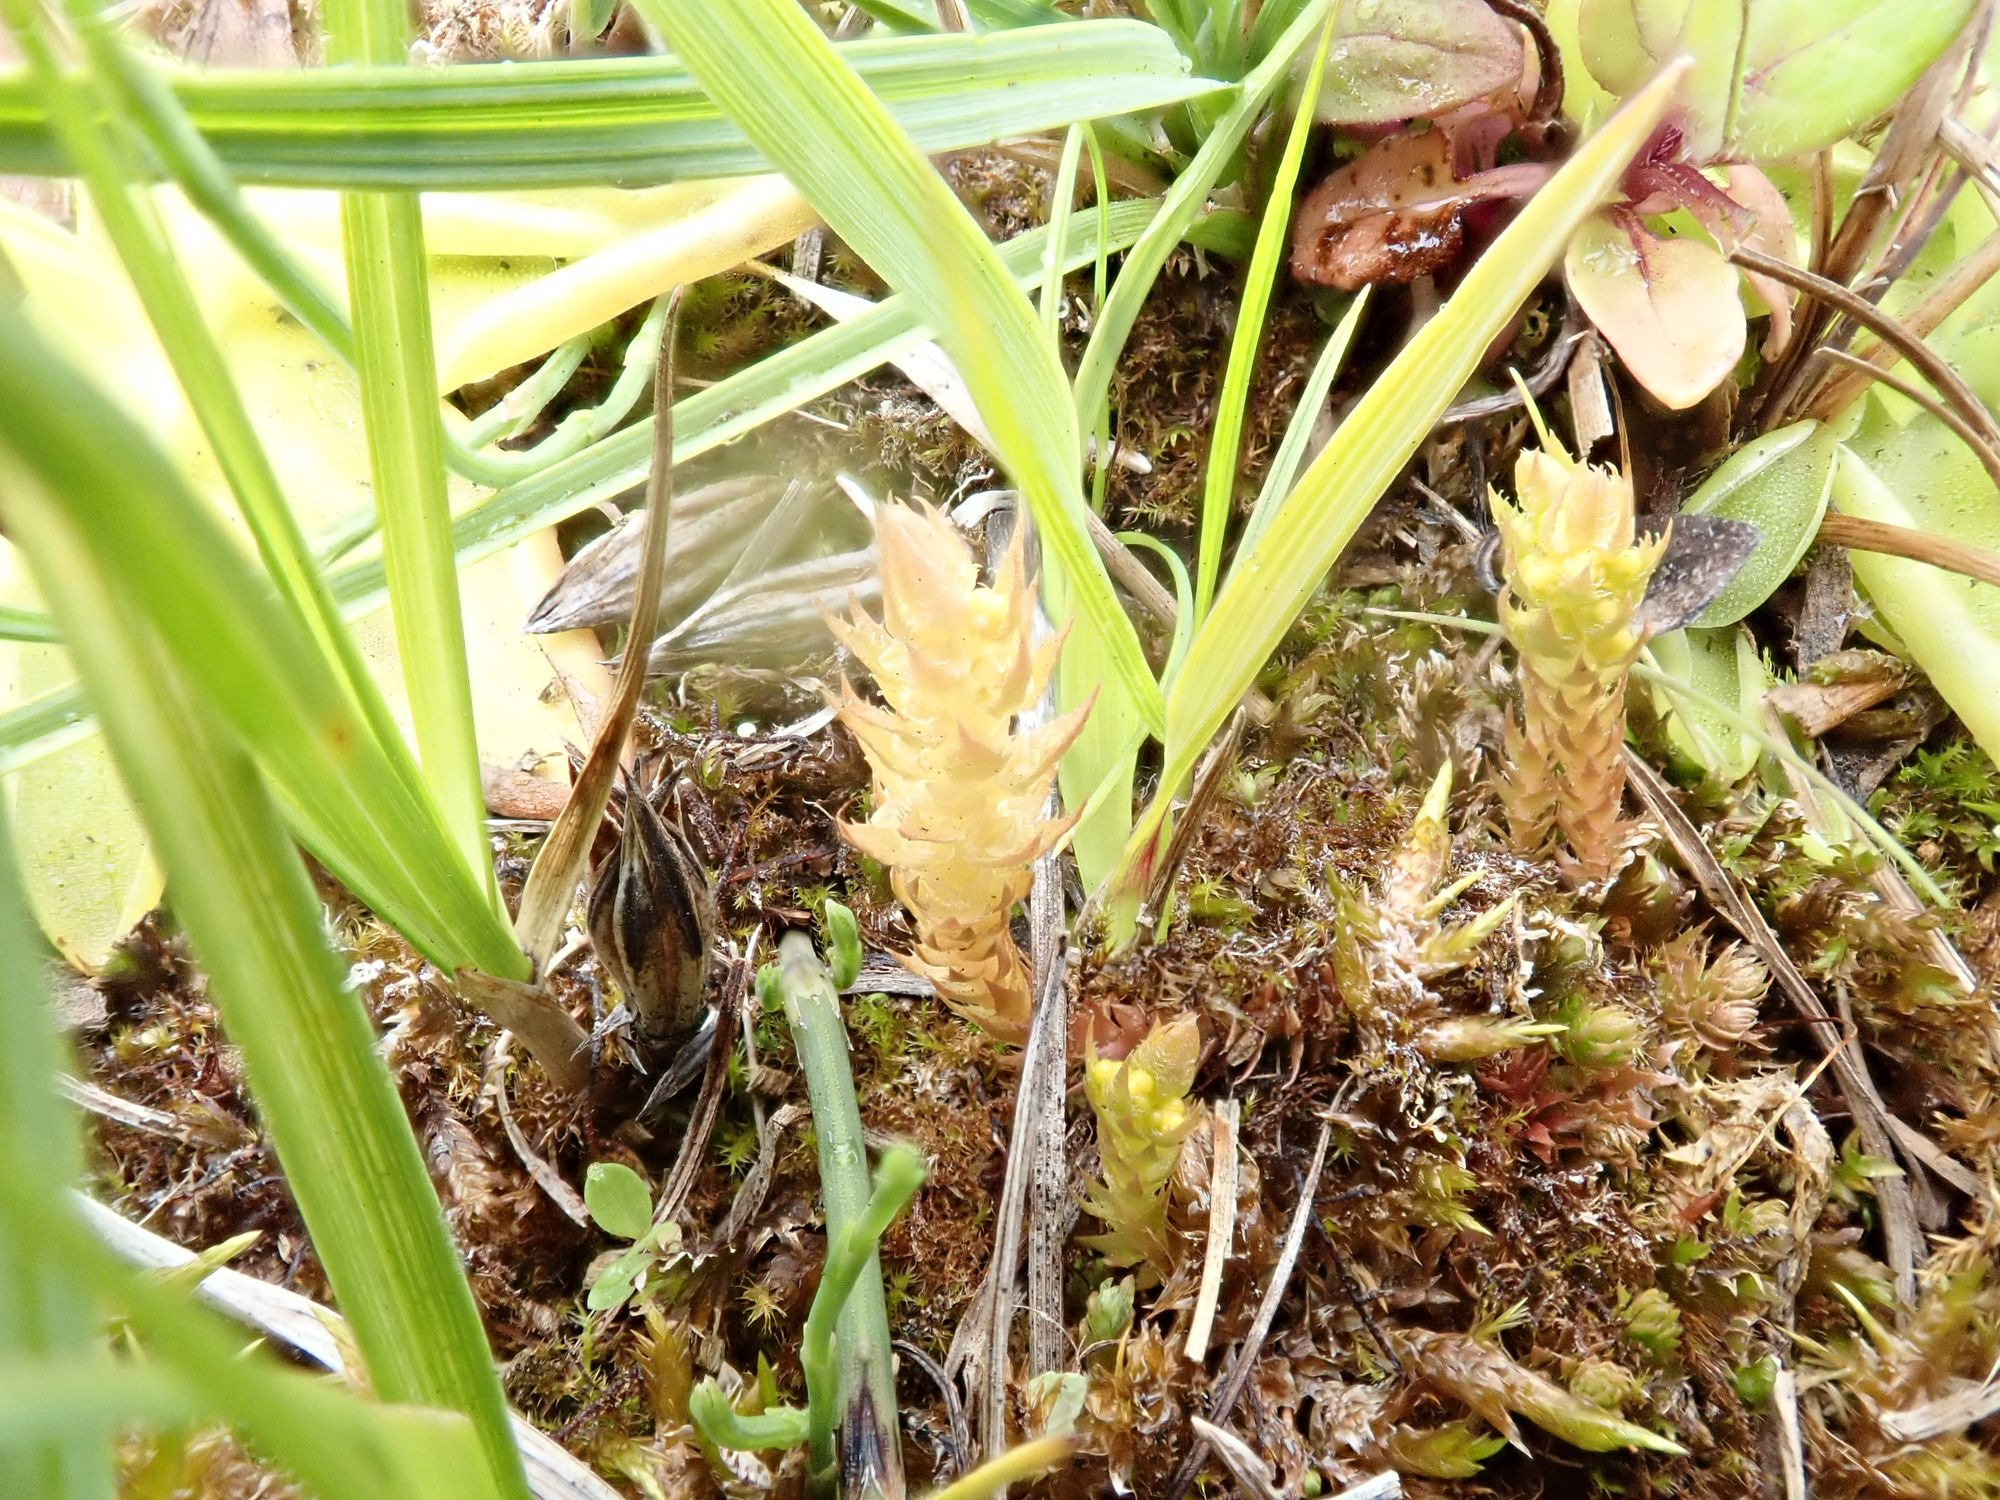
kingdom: Plantae
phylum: Tracheophyta
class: Lycopodiopsida
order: Selaginellales
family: Selaginellaceae
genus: Selaginella
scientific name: Selaginella selaginoides
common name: Dværgulvefod
